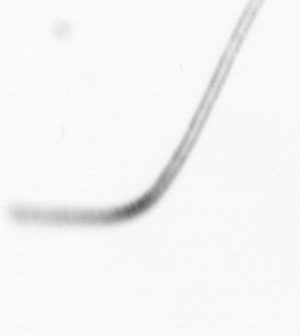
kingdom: Chromista
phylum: Ochrophyta
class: Bacillariophyceae
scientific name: Bacillariophyceae
